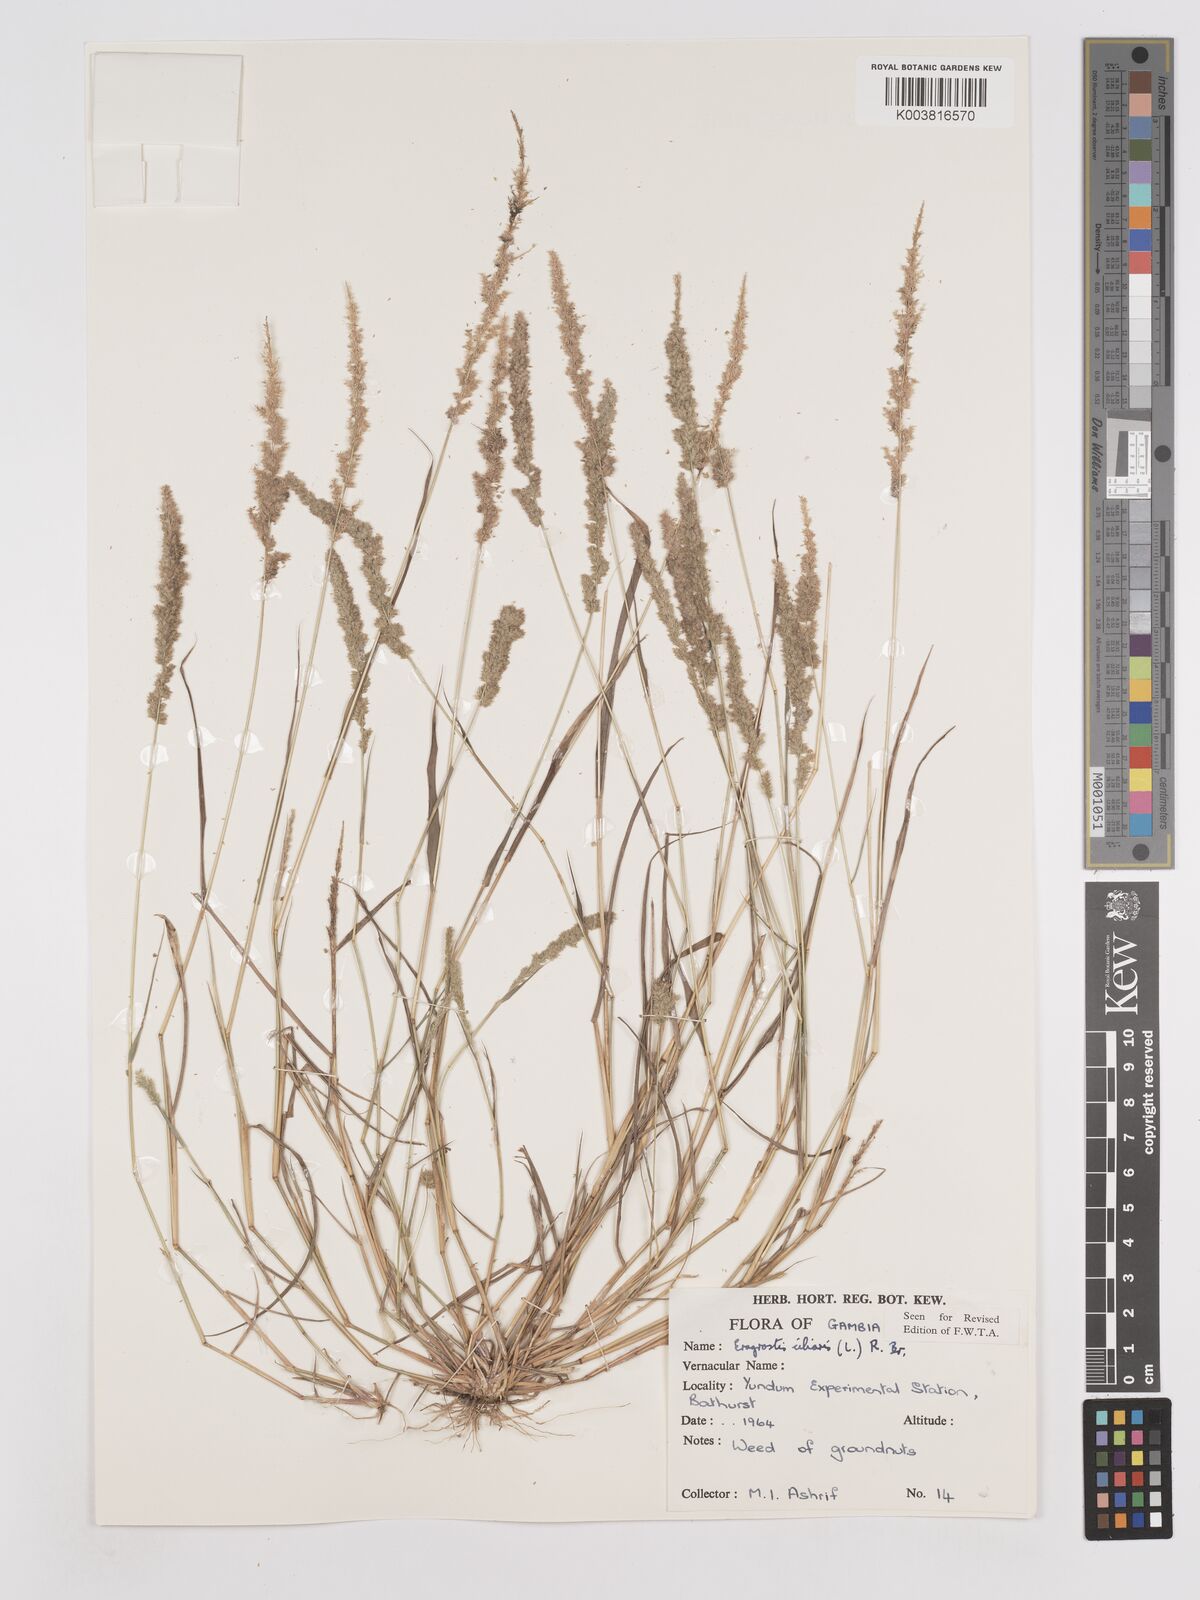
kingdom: Plantae
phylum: Tracheophyta
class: Liliopsida
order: Poales
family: Poaceae
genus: Eragrostis
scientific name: Eragrostis ciliaris
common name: Gophertail lovegrass
